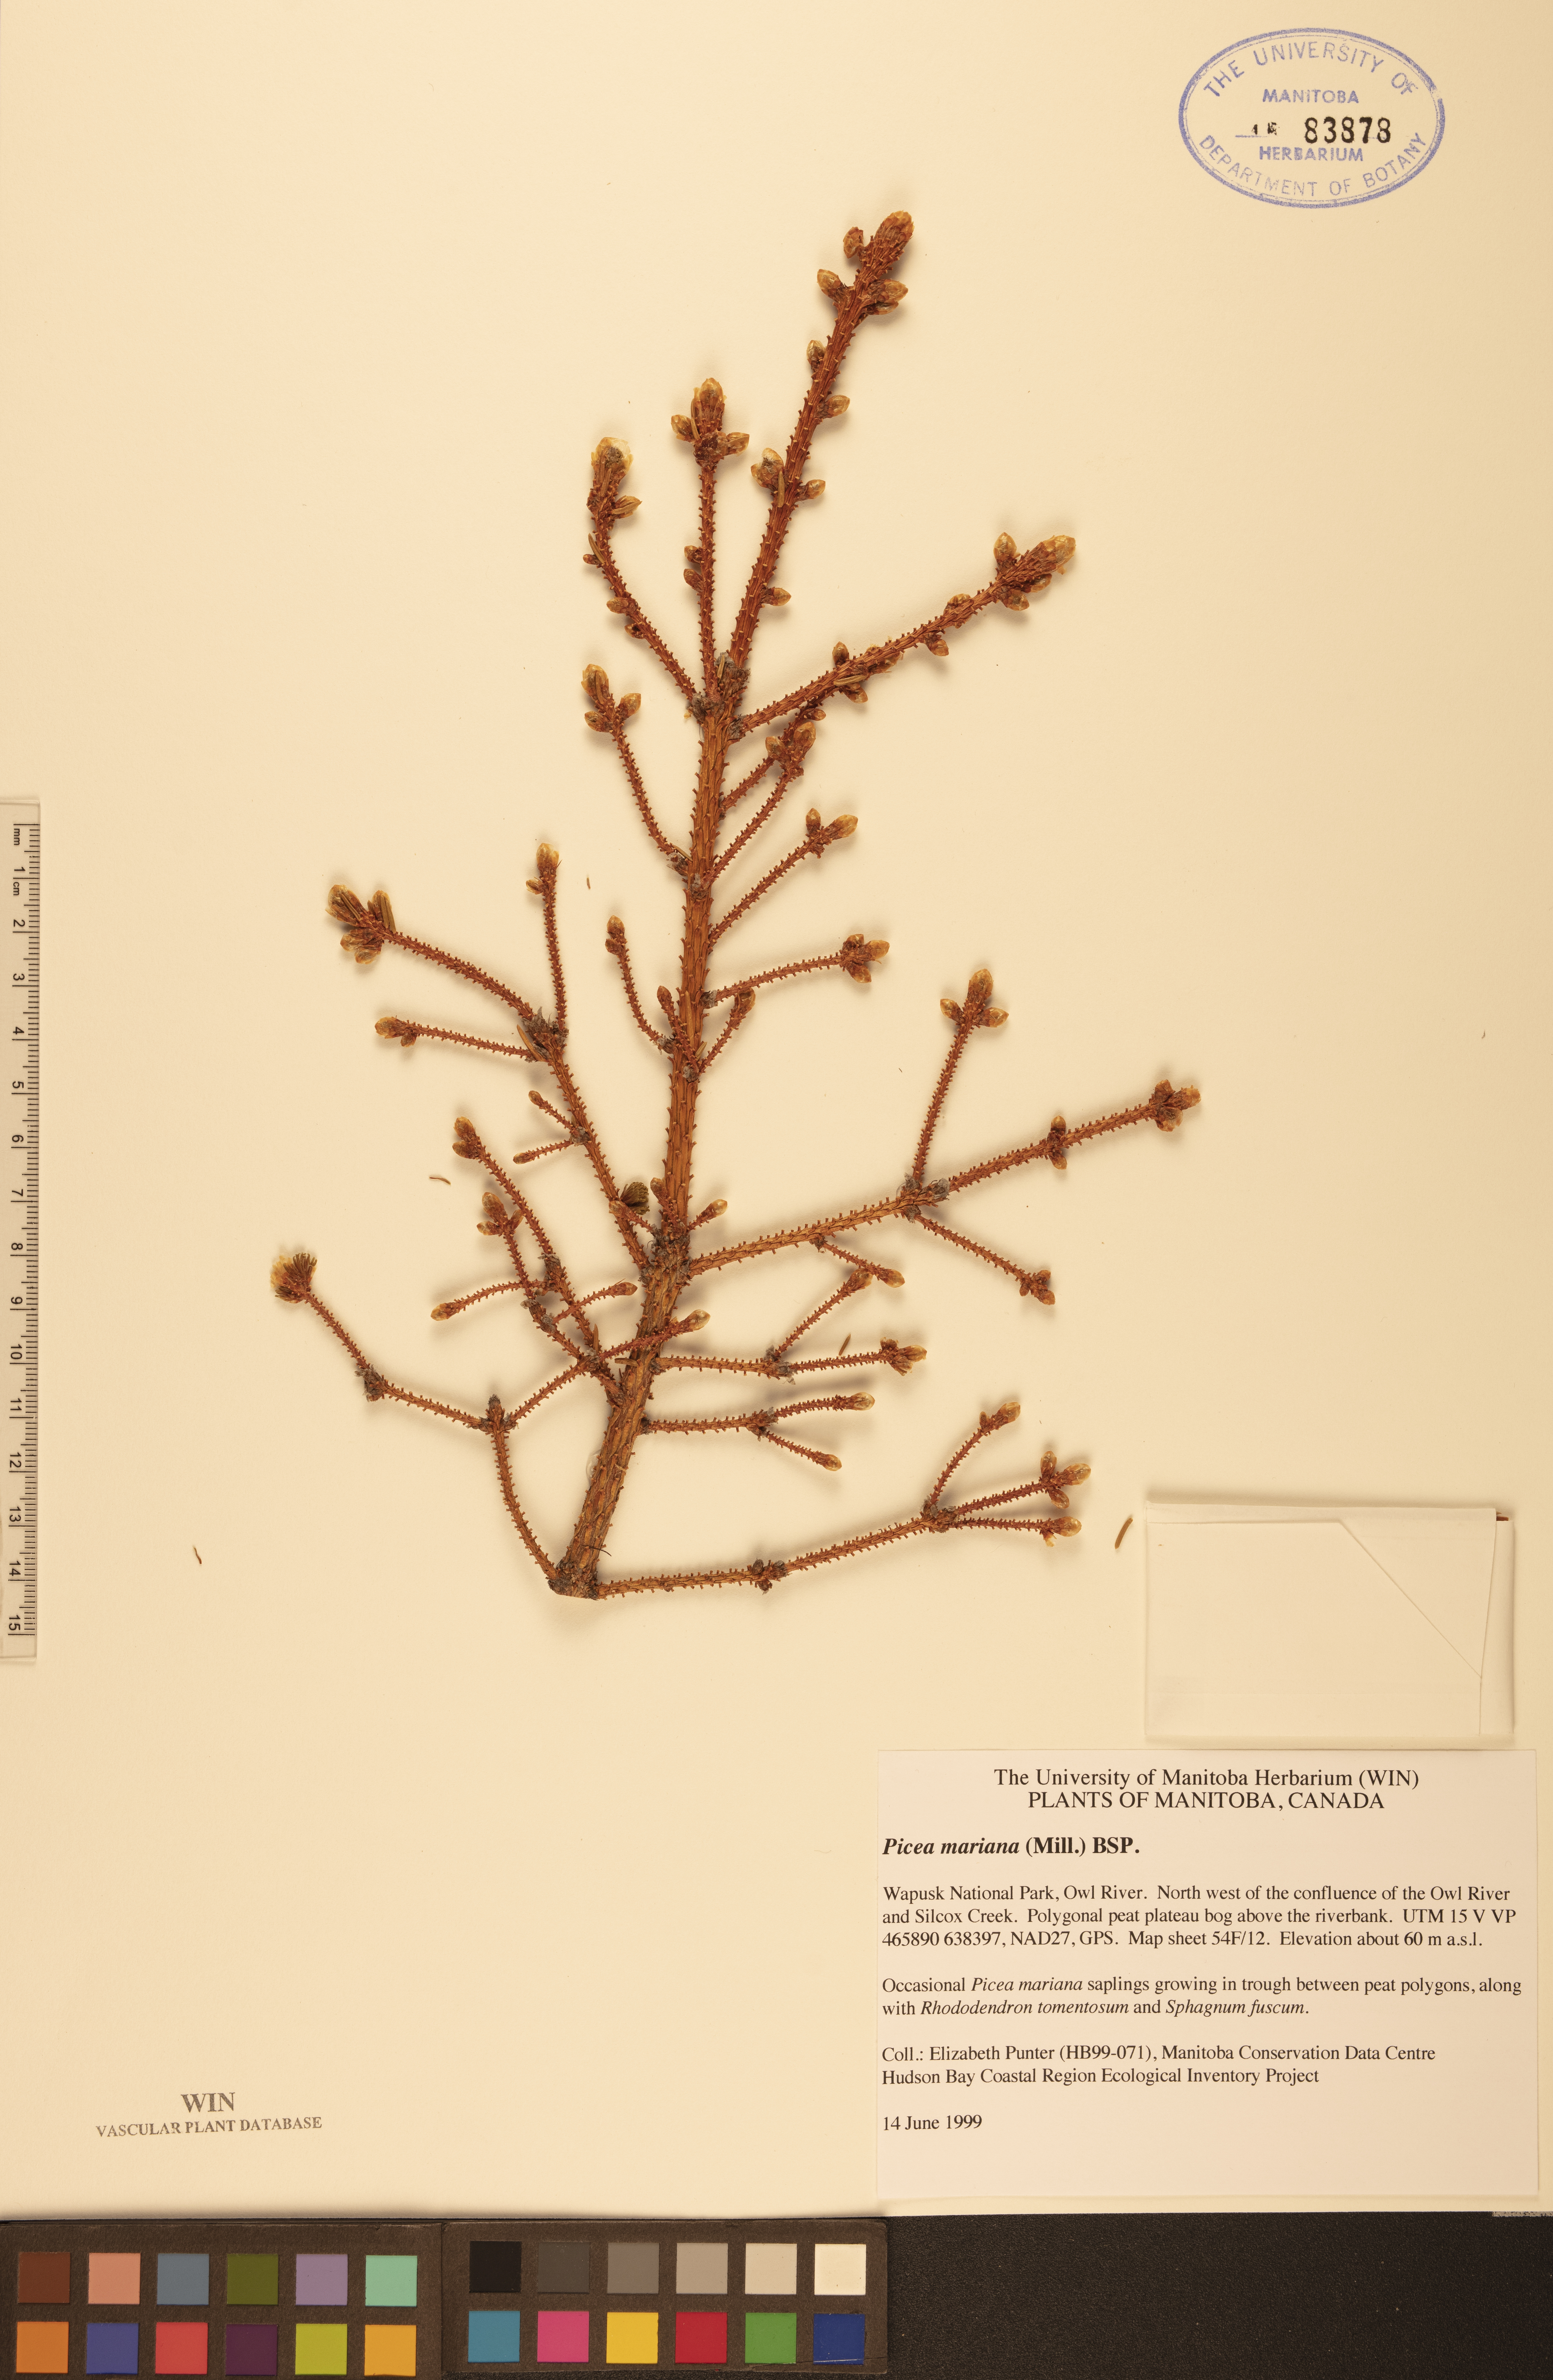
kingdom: Plantae
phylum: Tracheophyta
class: Pinopsida
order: Pinales
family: Pinaceae
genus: Picea
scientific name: Picea mariana
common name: Black spruce
